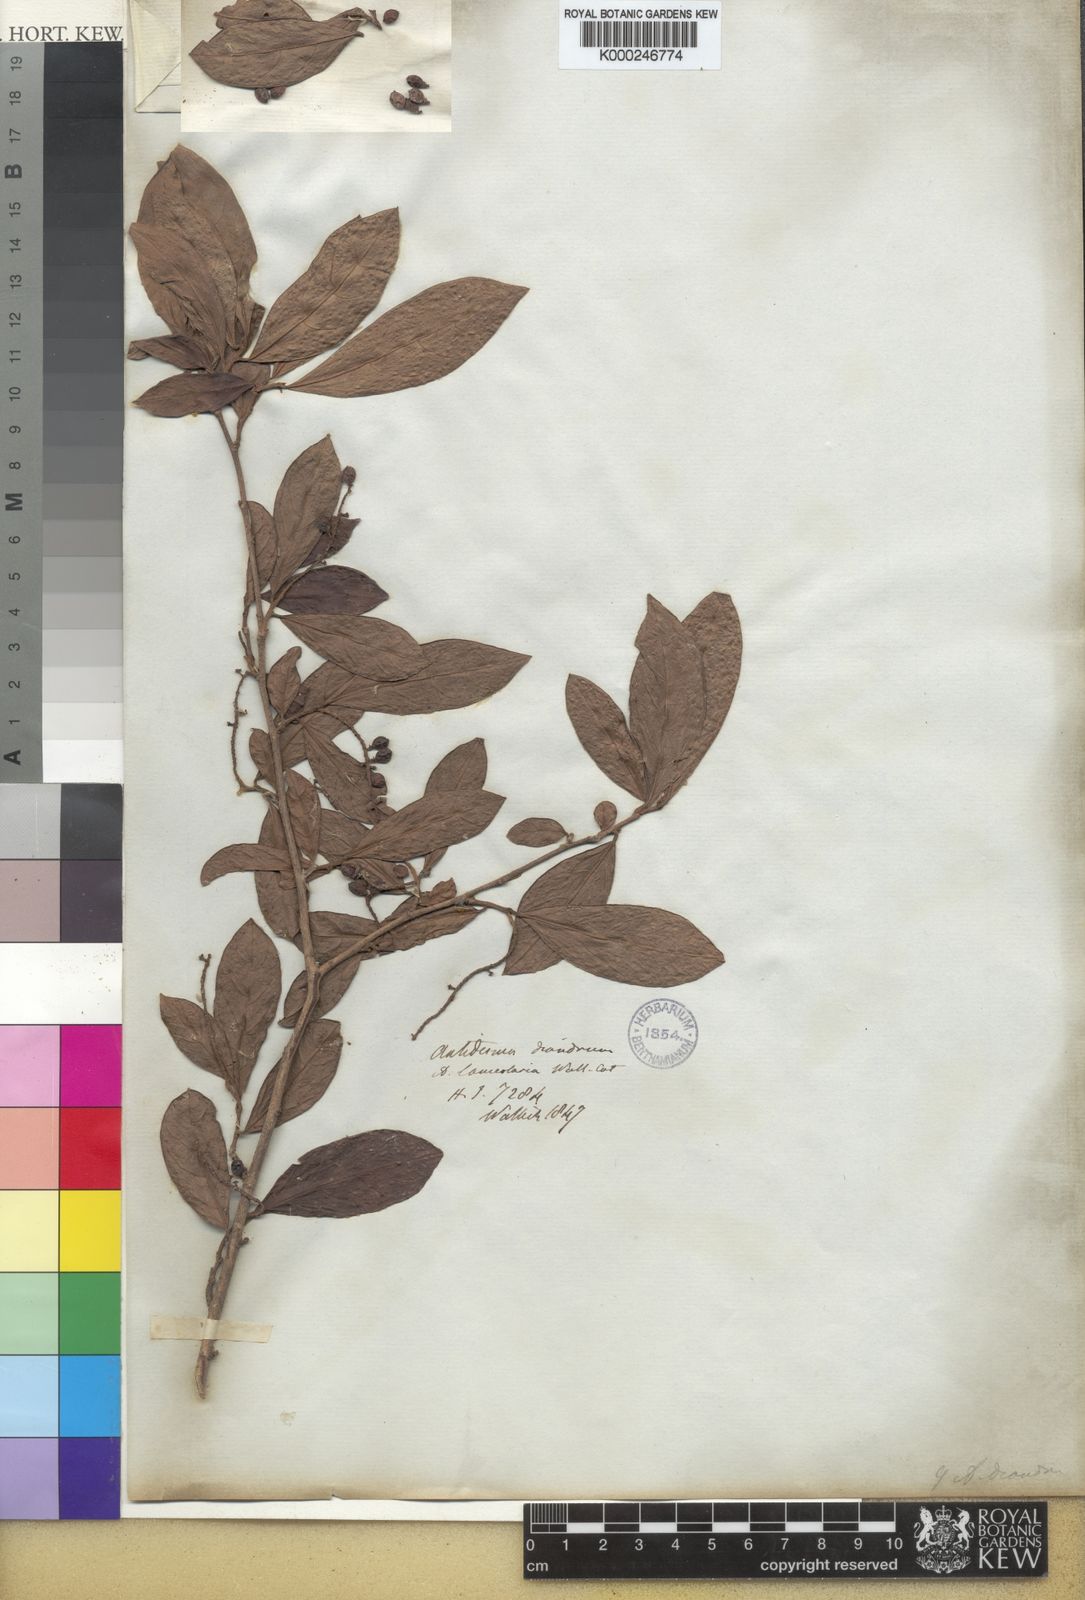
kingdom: Plantae
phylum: Tracheophyta
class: Magnoliopsida
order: Malpighiales
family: Phyllanthaceae
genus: Antidesma
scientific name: Antidesma acidum
